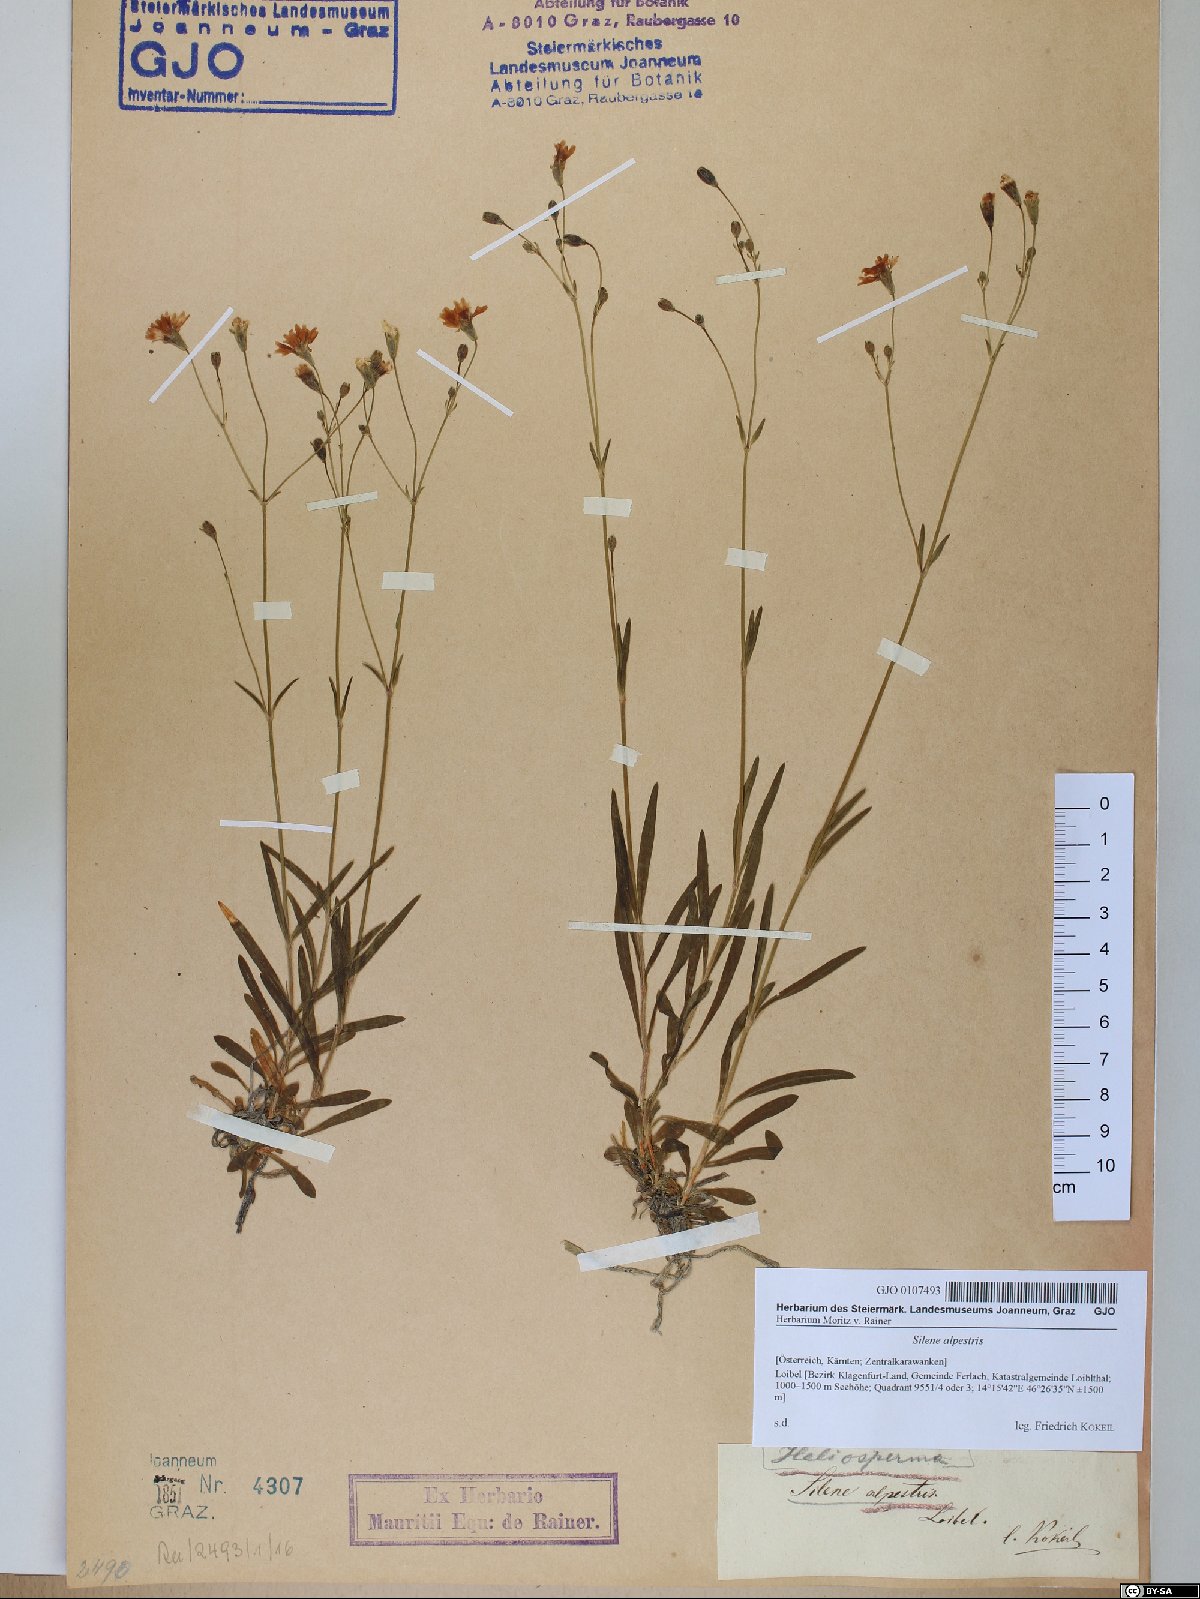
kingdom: Plantae
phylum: Tracheophyta
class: Magnoliopsida
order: Caryophyllales
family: Caryophyllaceae
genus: Heliosperma
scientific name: Heliosperma alpestre
